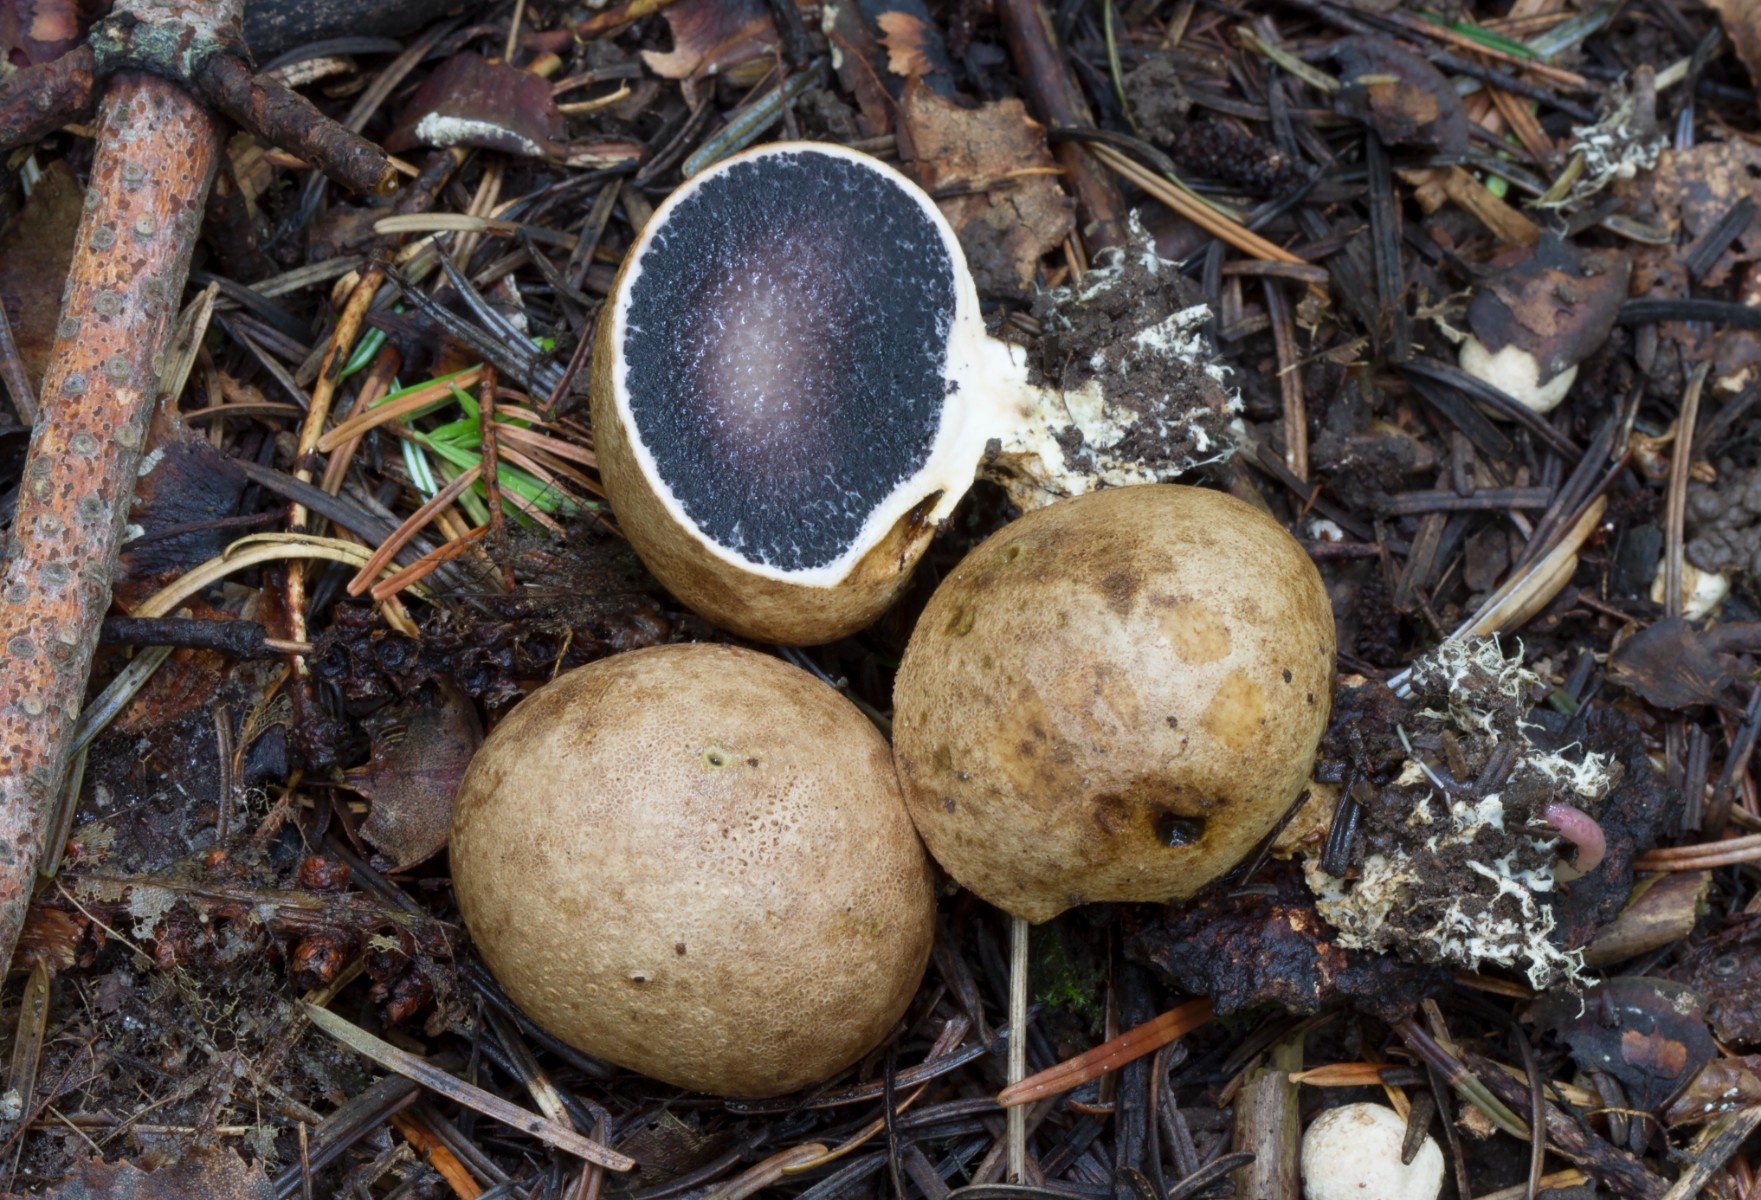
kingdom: Fungi
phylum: Basidiomycota
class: Agaricomycetes
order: Boletales
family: Sclerodermataceae
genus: Scleroderma
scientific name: Scleroderma bovista
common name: bovist-bruskbold
